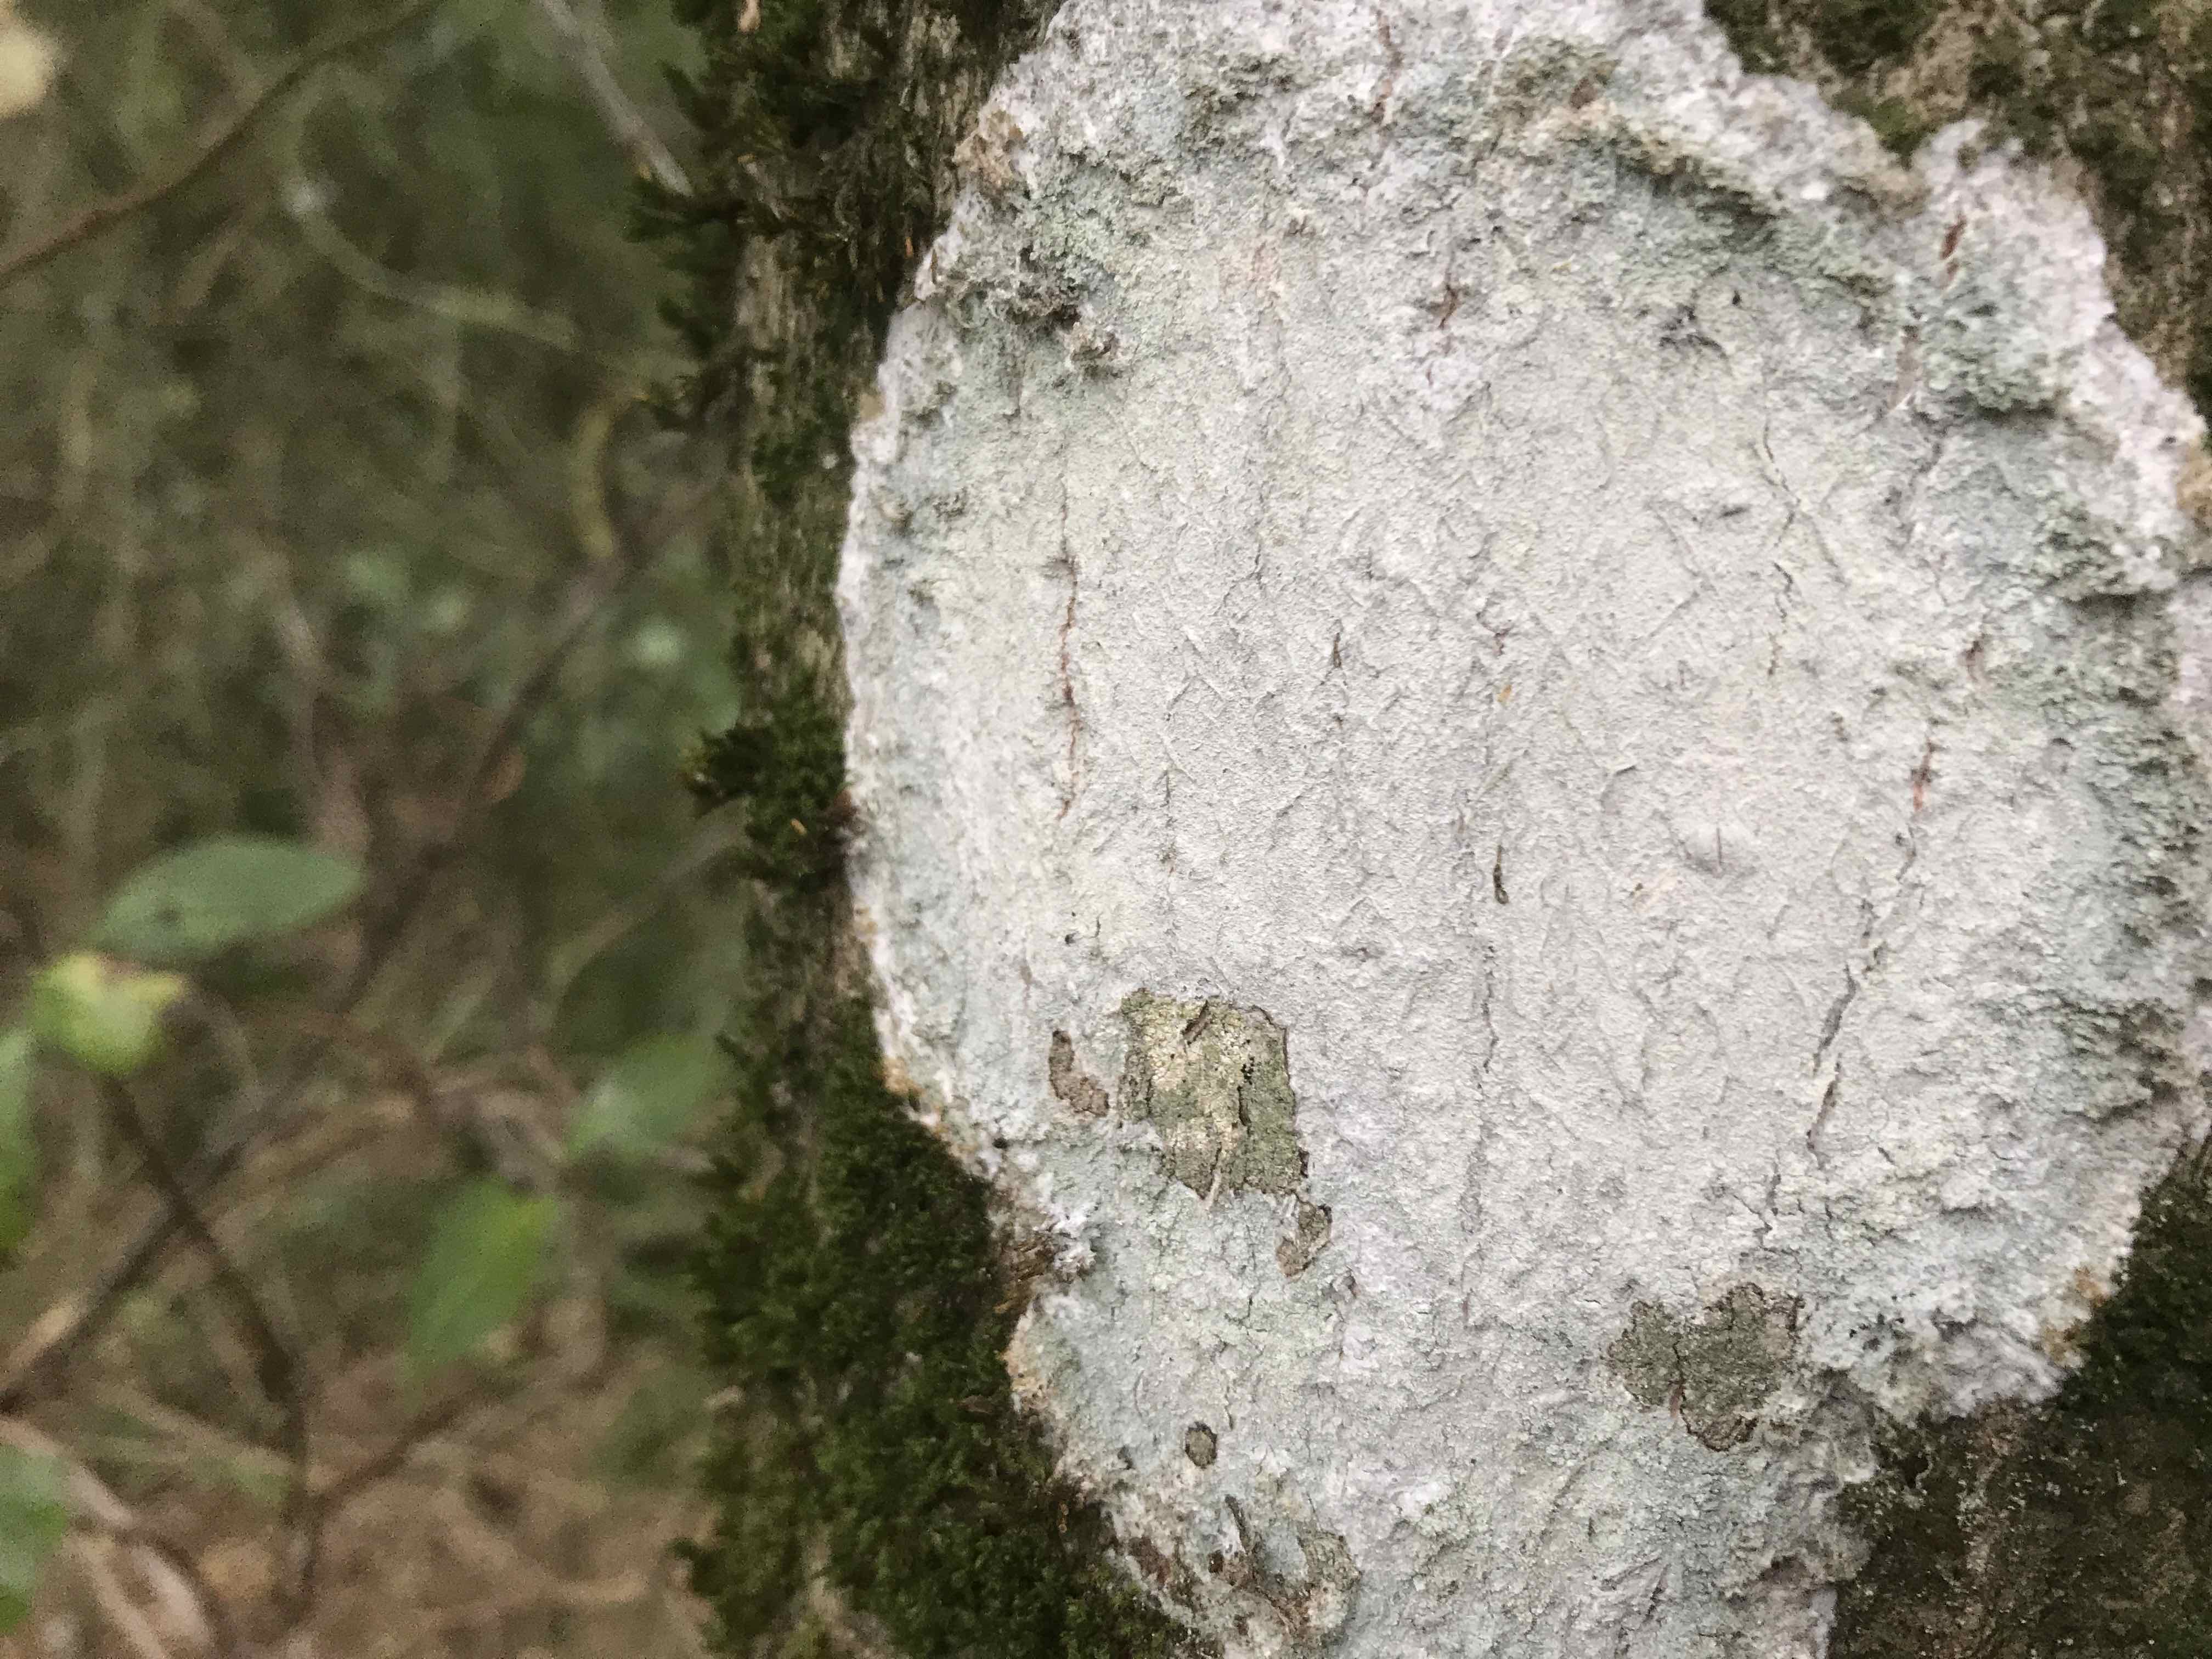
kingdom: Fungi
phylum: Ascomycota
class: Lecanoromycetes
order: Ostropales
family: Phlyctidaceae
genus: Phlyctis
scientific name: Phlyctis argena
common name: almindelig sølvlav
